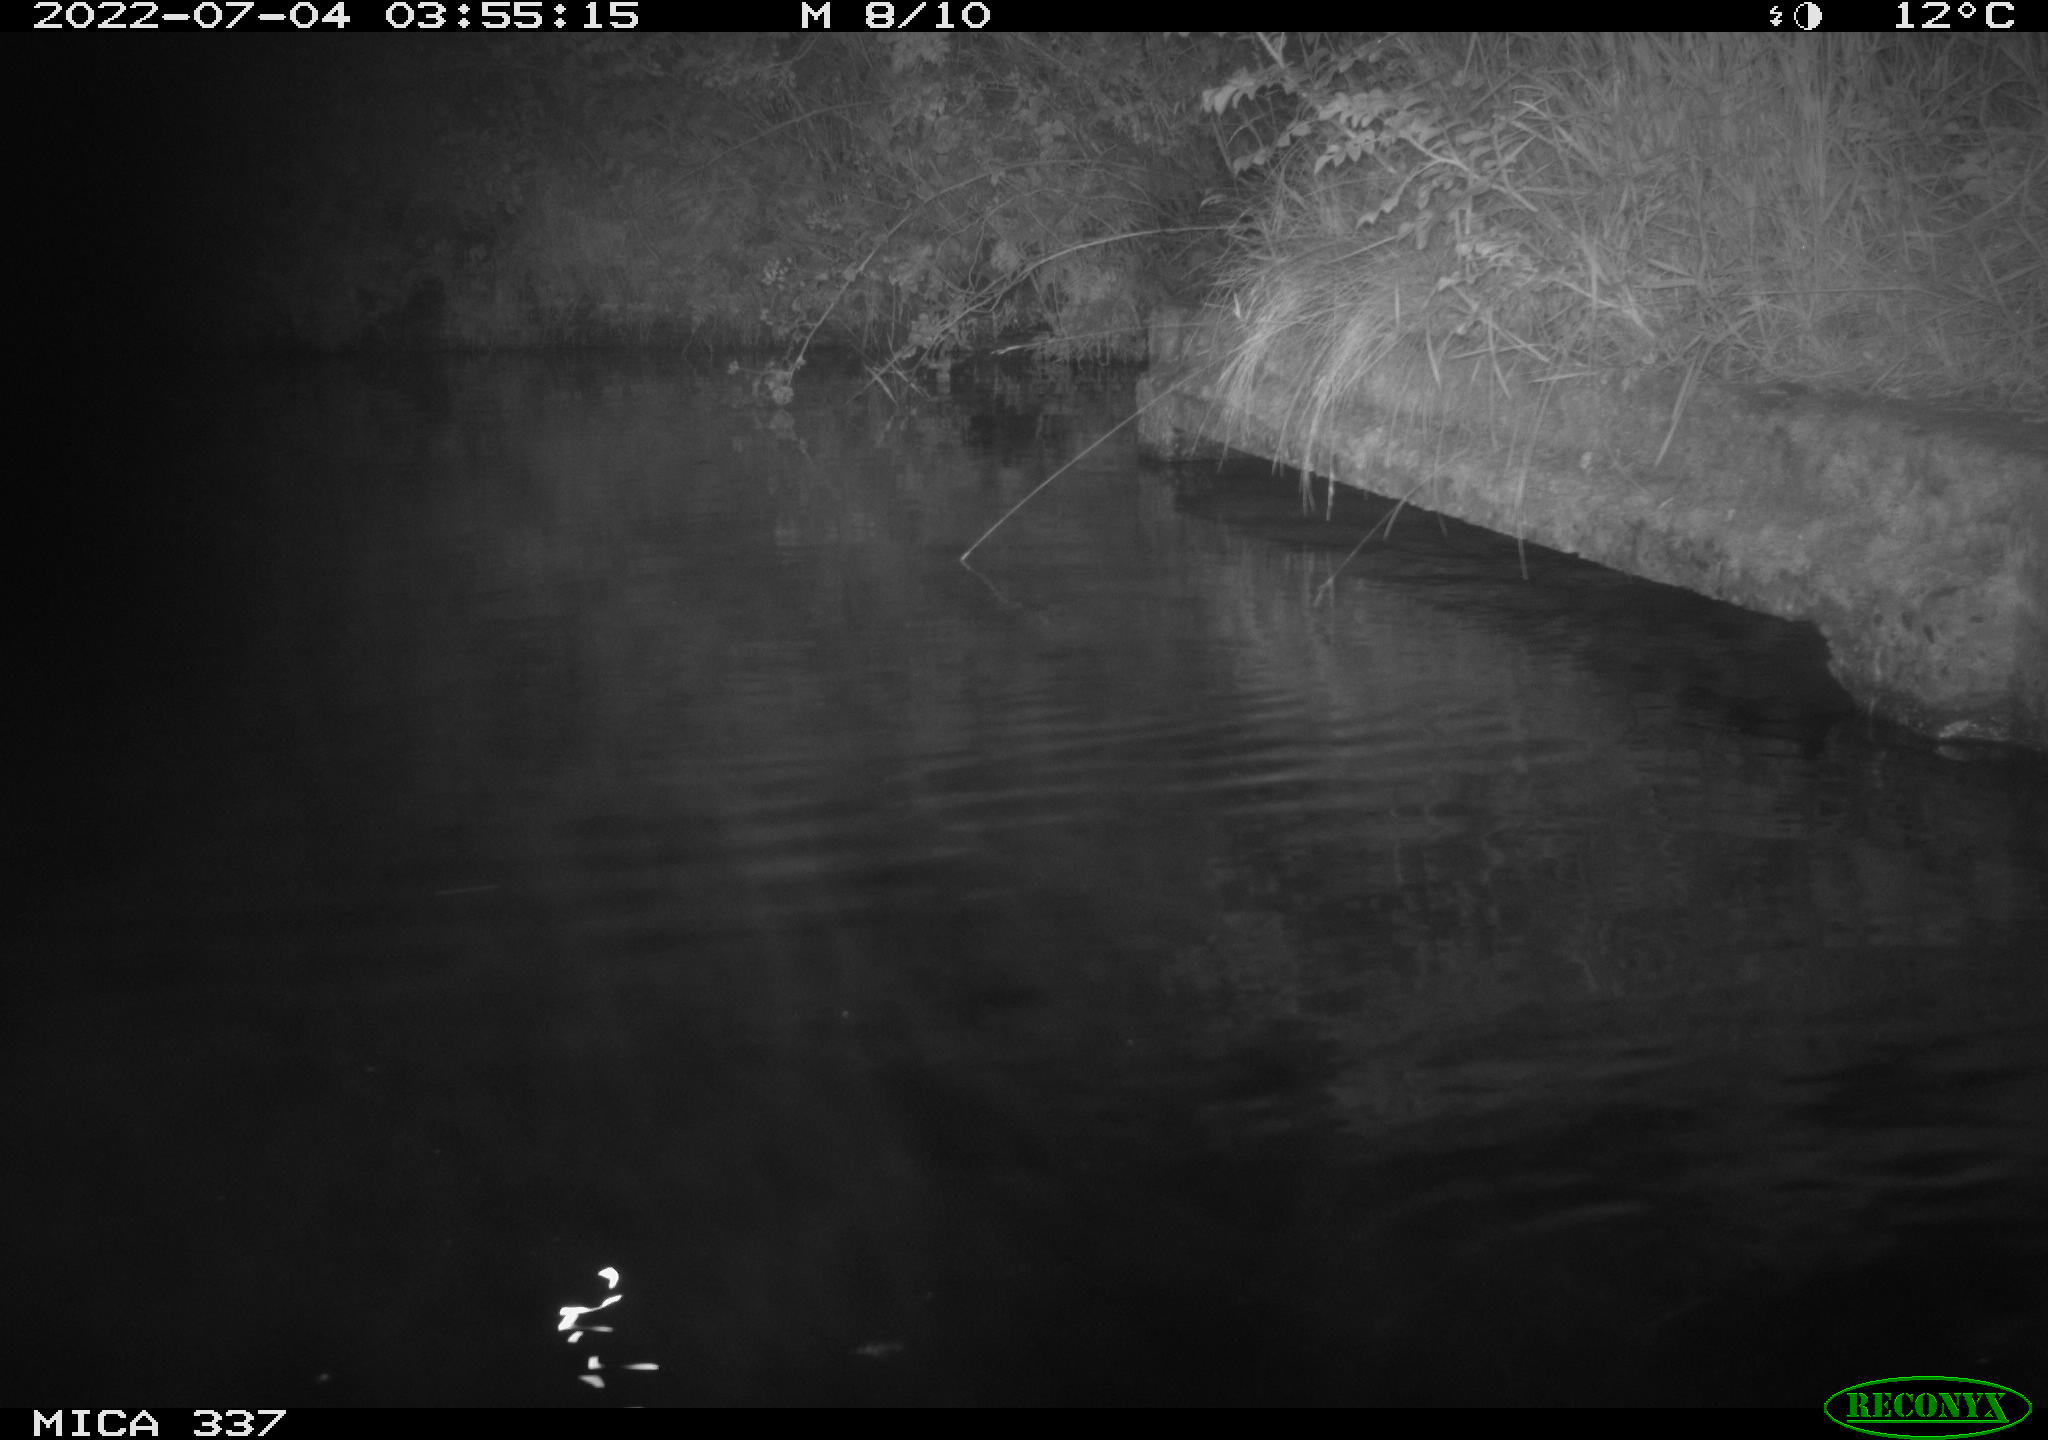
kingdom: Animalia
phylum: Chordata
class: Aves
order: Anseriformes
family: Anatidae
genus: Anas
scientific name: Anas platyrhynchos
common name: Mallard
